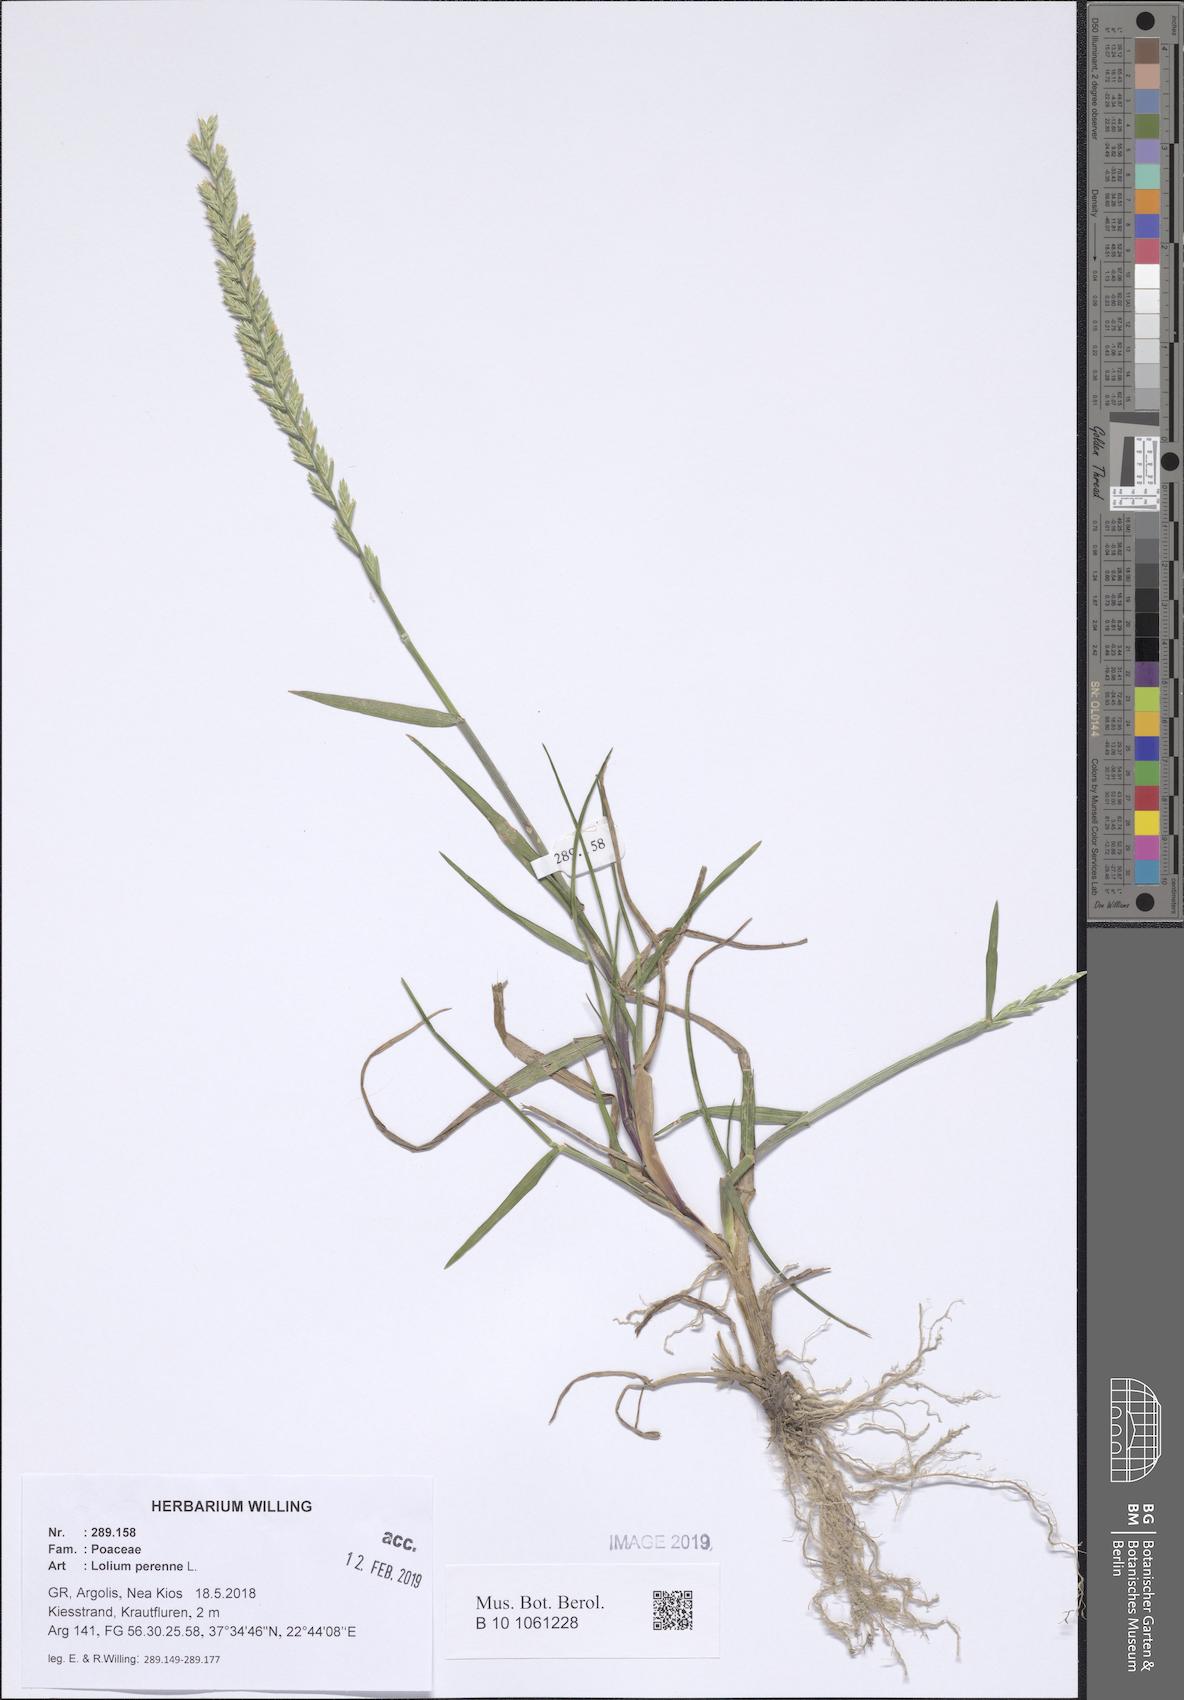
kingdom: Plantae
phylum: Tracheophyta
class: Liliopsida
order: Poales
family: Poaceae
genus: Lolium
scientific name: Lolium perenne
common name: Perennial ryegrass
